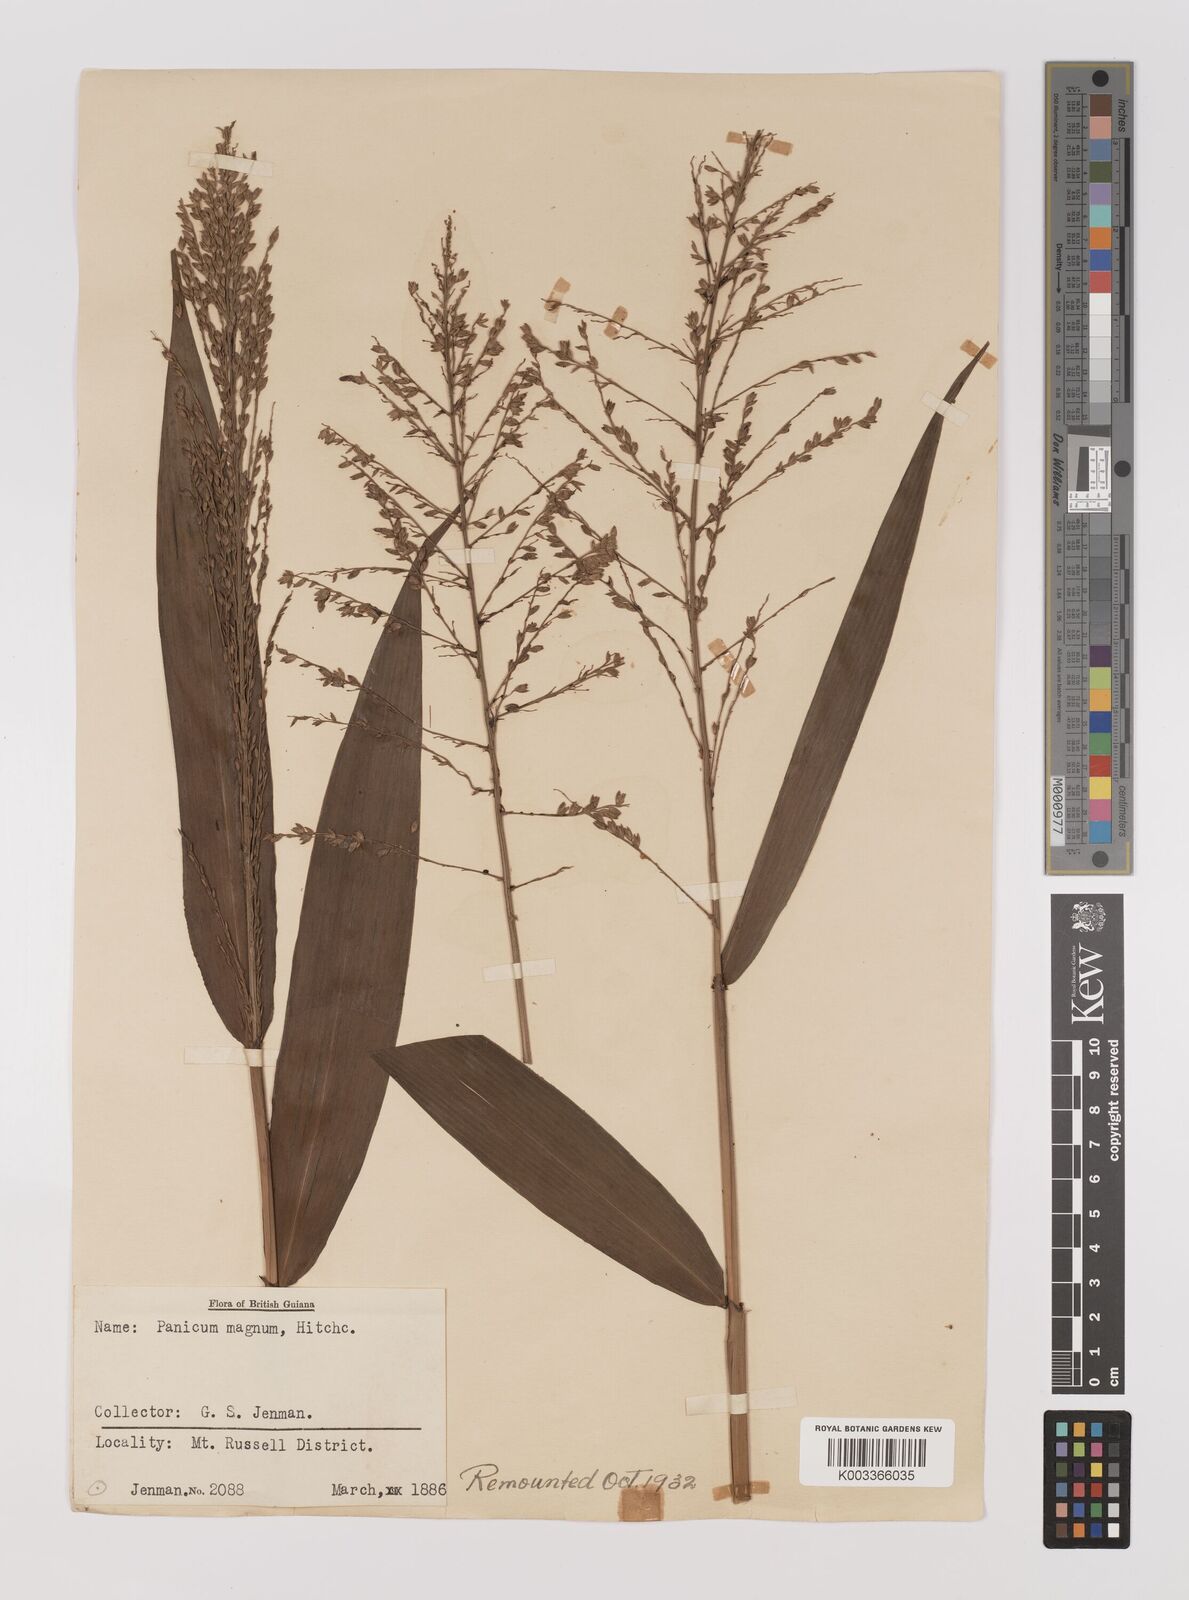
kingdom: Plantae
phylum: Tracheophyta
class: Liliopsida
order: Poales
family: Poaceae
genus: Ichnanthus
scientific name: Ichnanthus breviscrobs
